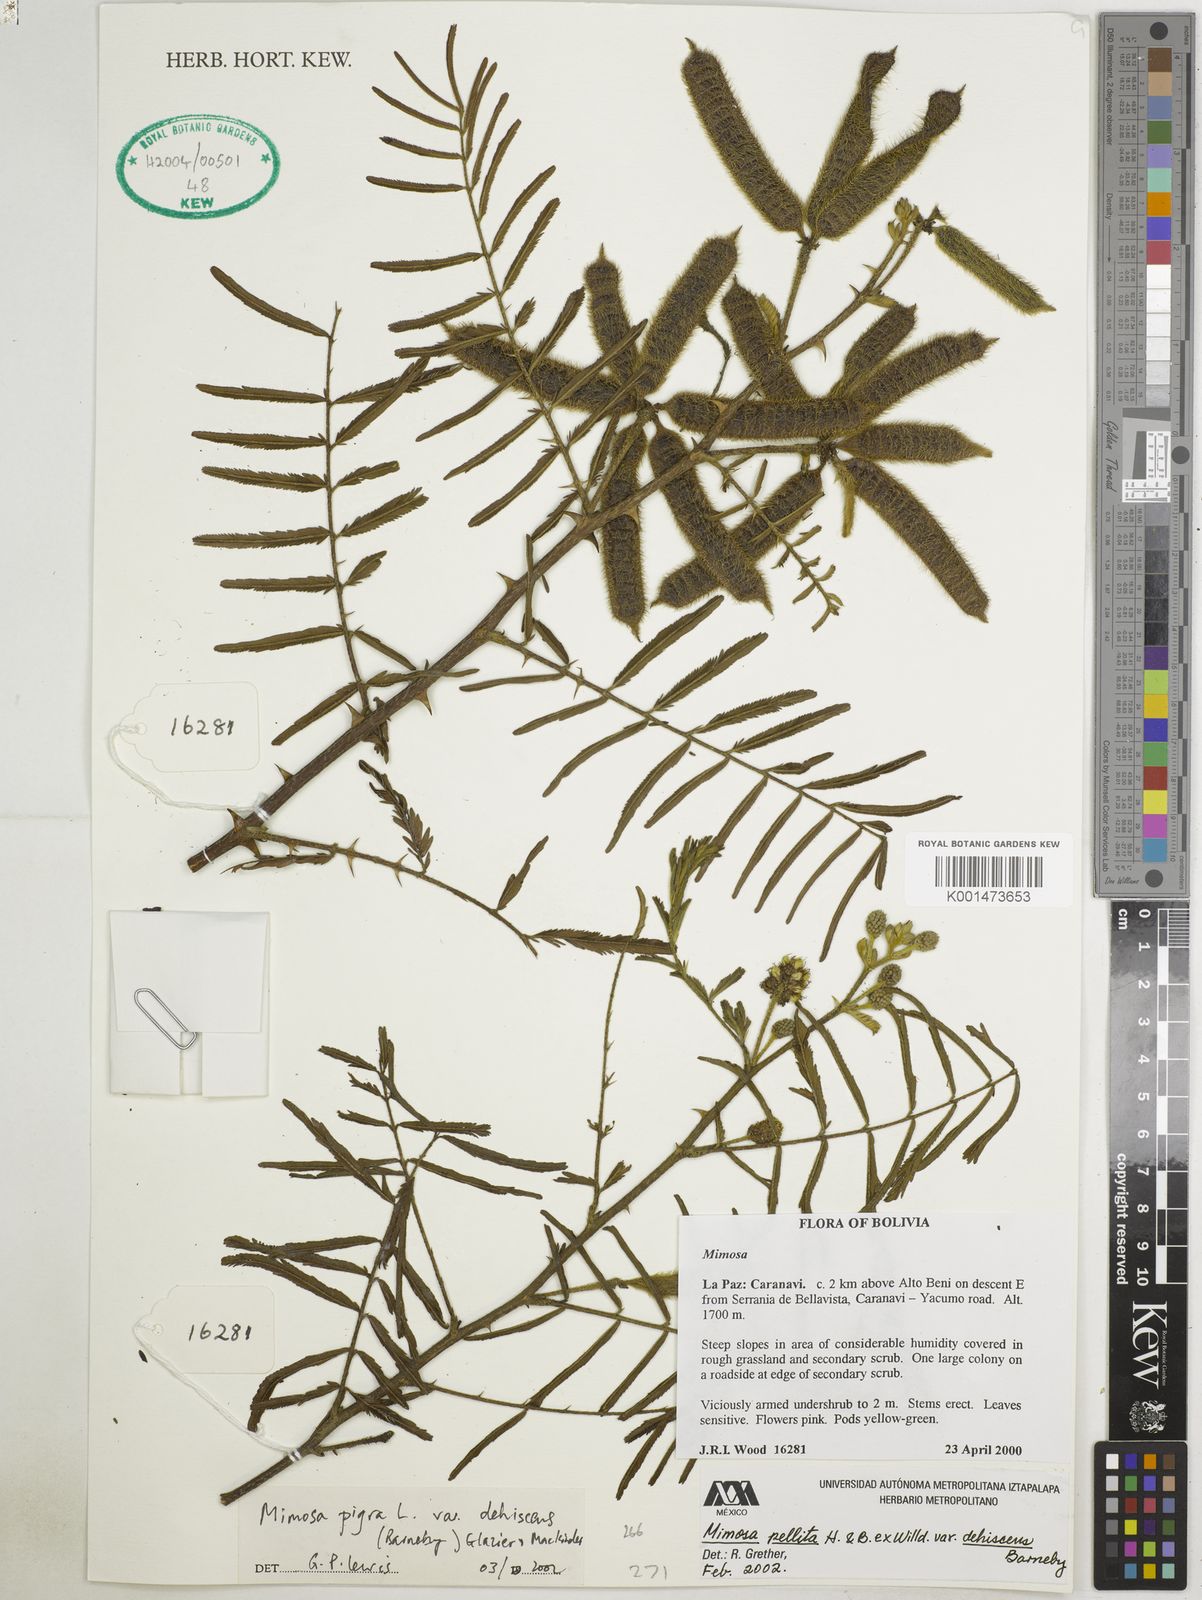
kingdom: Plantae
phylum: Tracheophyta
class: Magnoliopsida
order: Fabales
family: Fabaceae
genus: Mimosa
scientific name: Mimosa pigra
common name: Black mimosa
